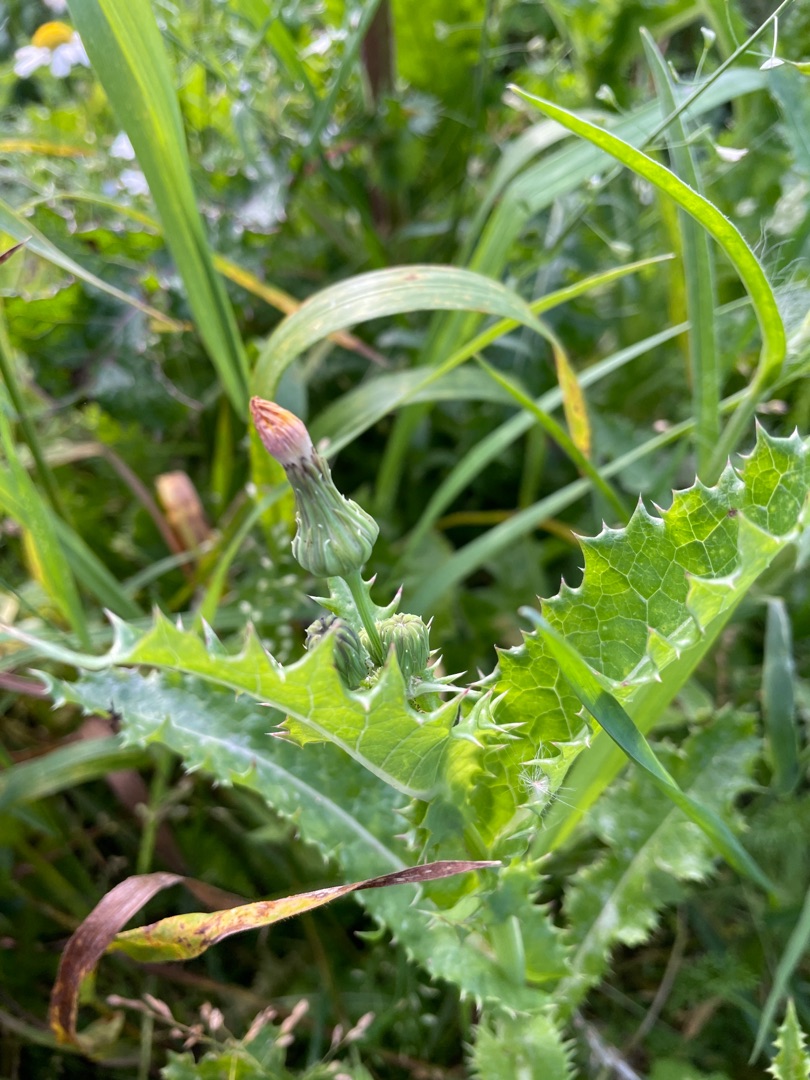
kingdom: Plantae
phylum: Tracheophyta
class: Magnoliopsida
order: Asterales
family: Asteraceae
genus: Sonchus
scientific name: Sonchus asper
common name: Ru svinemælk
